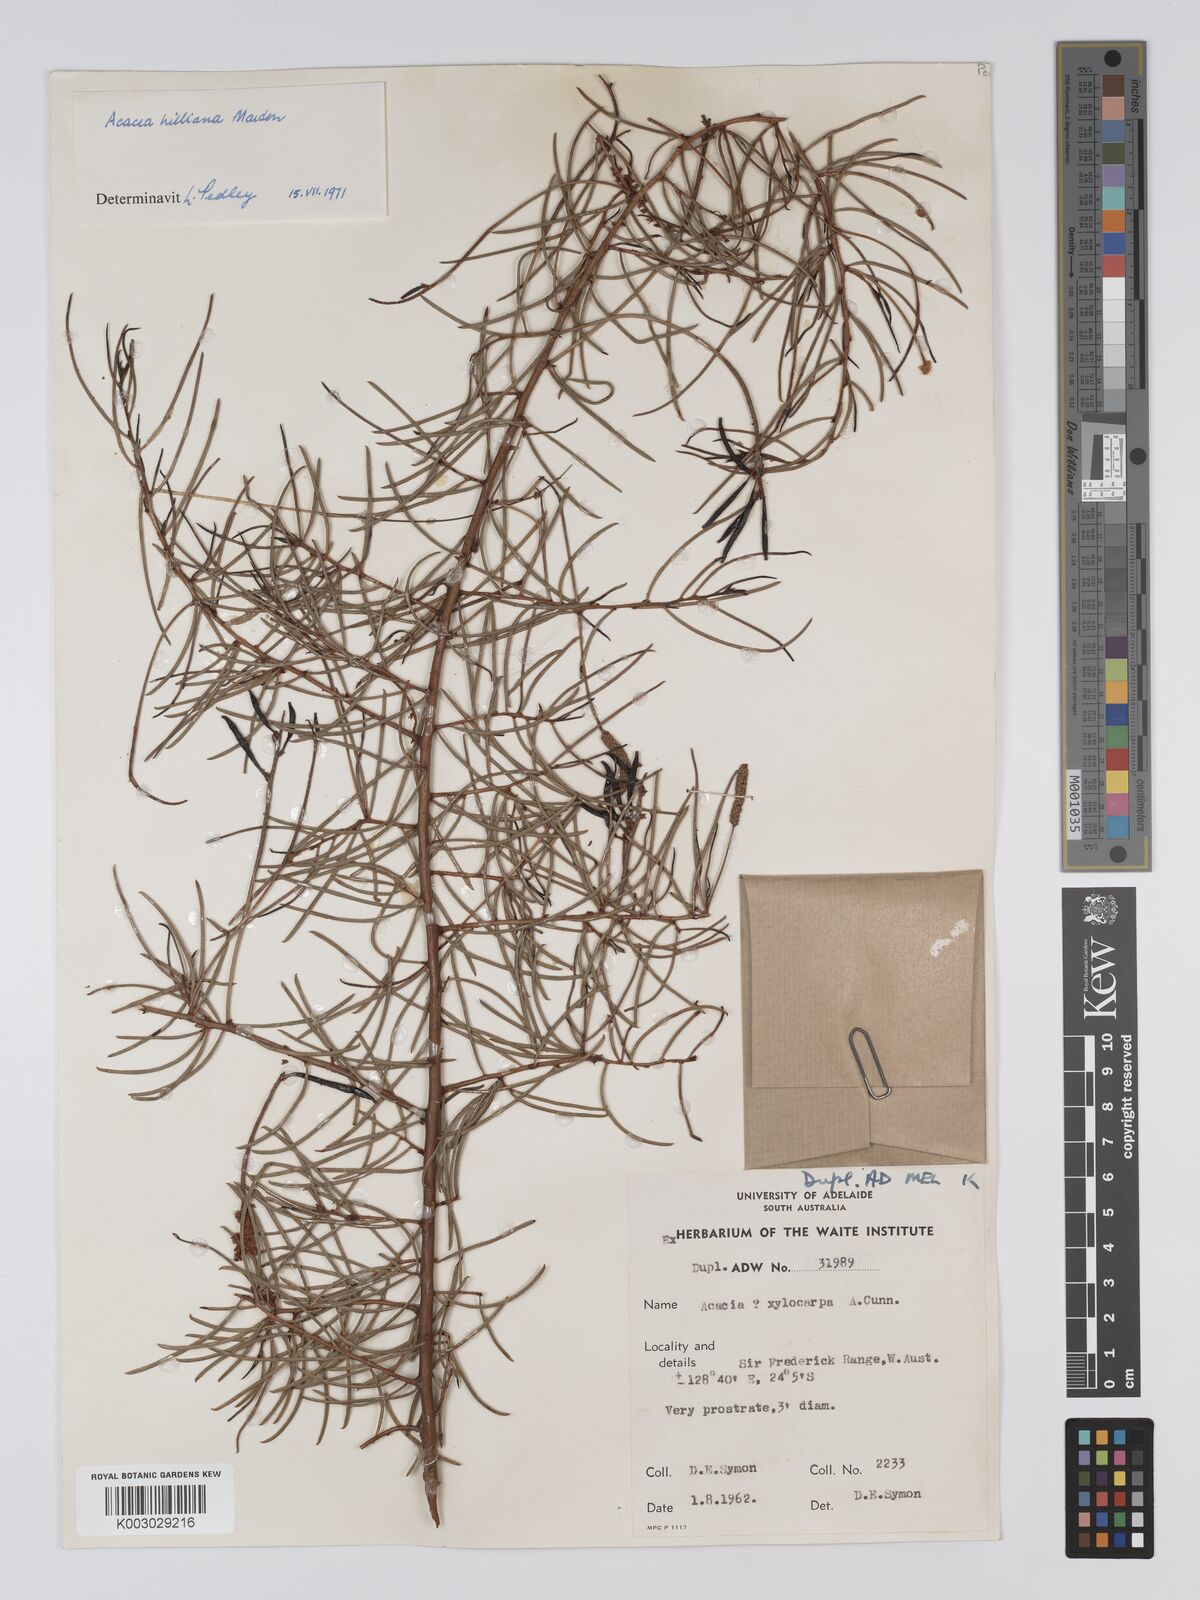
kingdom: Plantae
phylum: Tracheophyta
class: Magnoliopsida
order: Fabales
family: Fabaceae
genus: Acacia
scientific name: Acacia hilliana
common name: Hill's tabletop wattle
